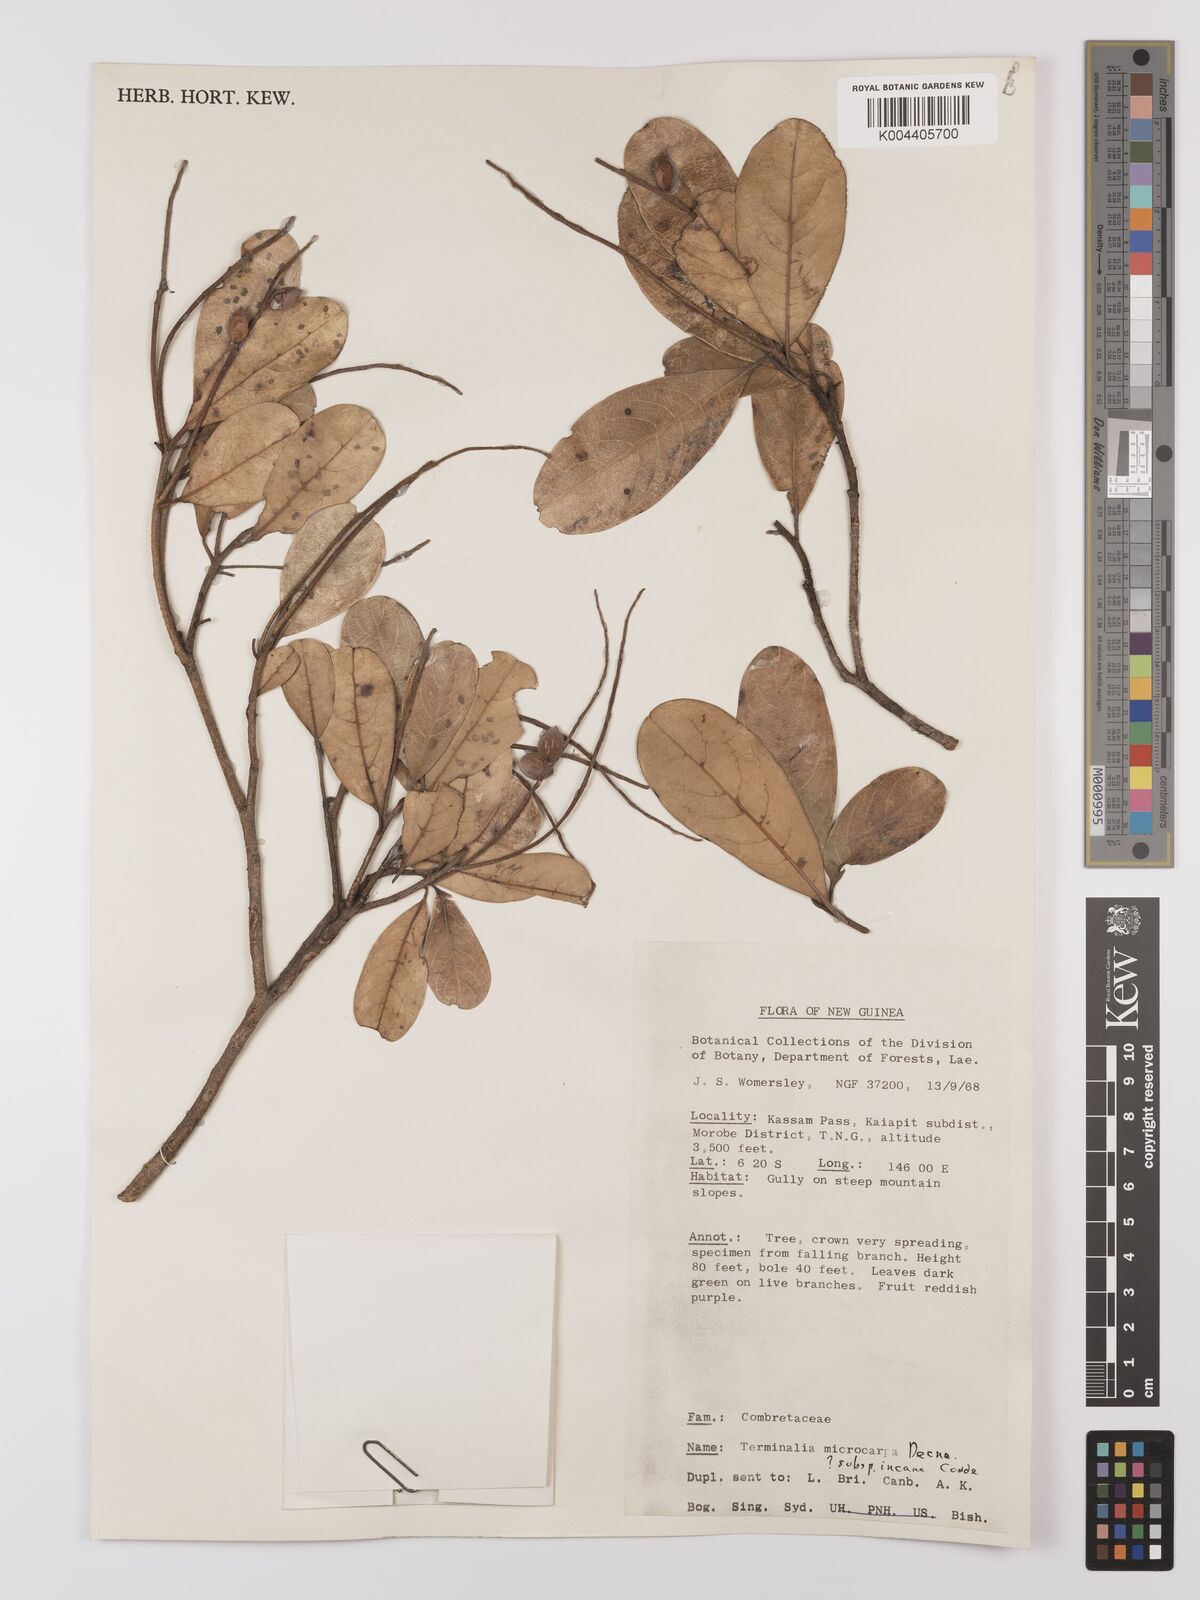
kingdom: Plantae
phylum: Tracheophyta
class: Magnoliopsida
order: Myrtales
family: Combretaceae
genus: Terminalia
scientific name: Terminalia microcarpa
